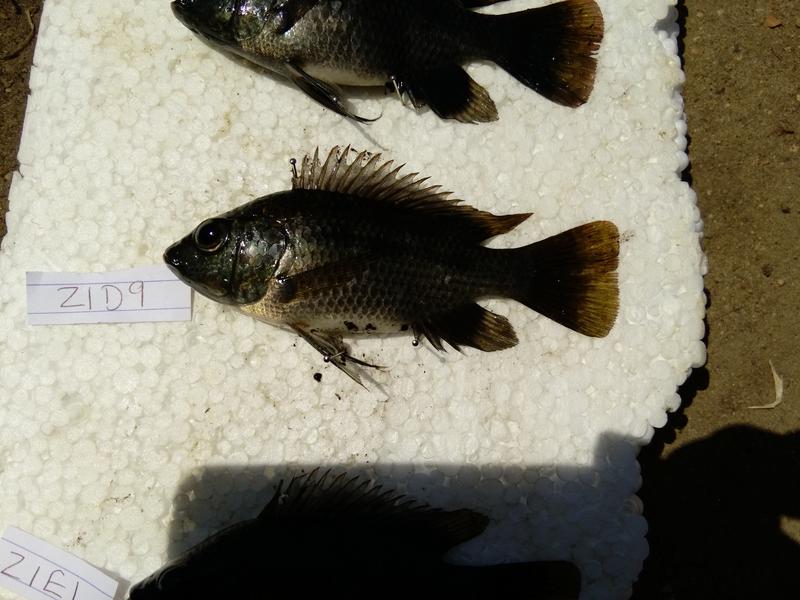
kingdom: Animalia
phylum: Chordata
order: Perciformes
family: Cichlidae
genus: Oreochromis
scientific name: Oreochromis urolepis
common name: Wami tilapia
